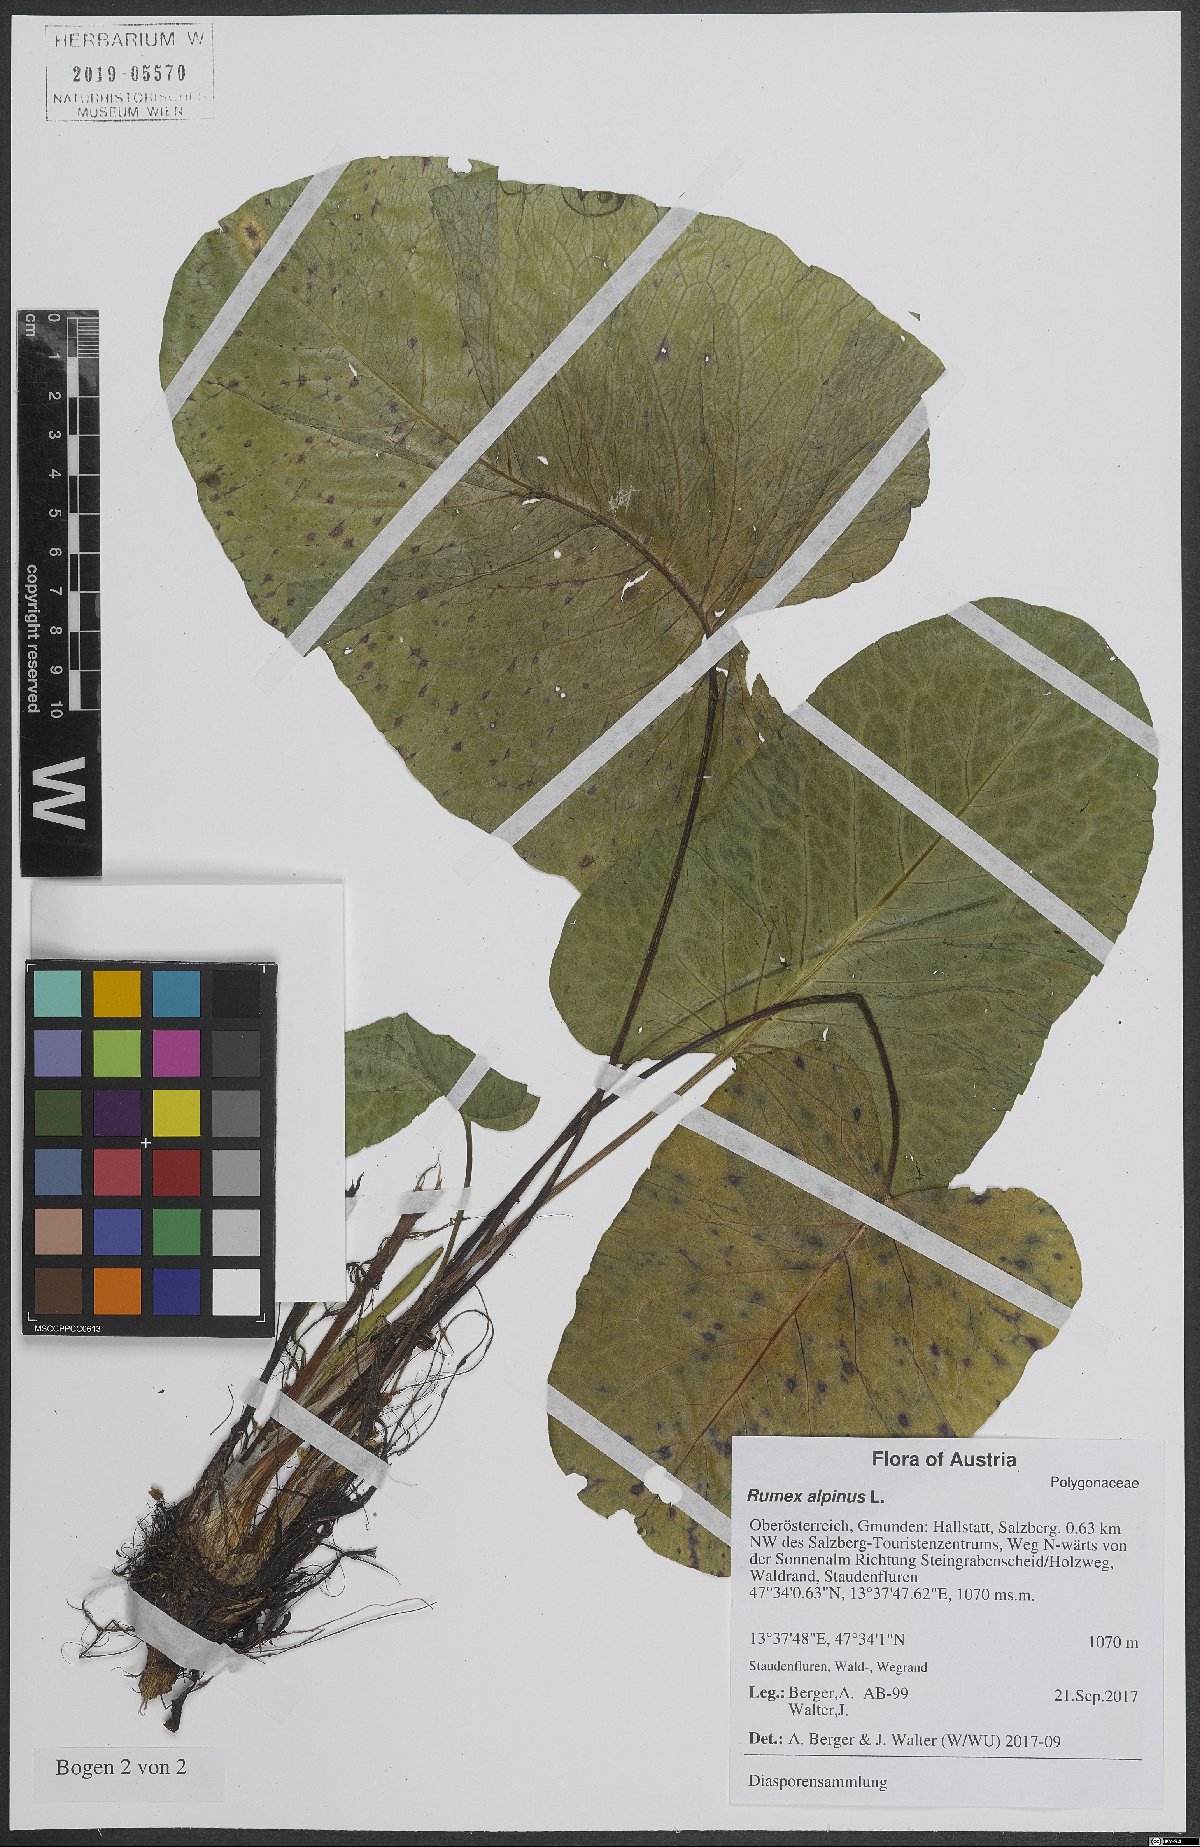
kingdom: Plantae
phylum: Tracheophyta
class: Magnoliopsida
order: Caryophyllales
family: Polygonaceae
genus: Rumex
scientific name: Rumex alpinus
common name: Alpine dock
